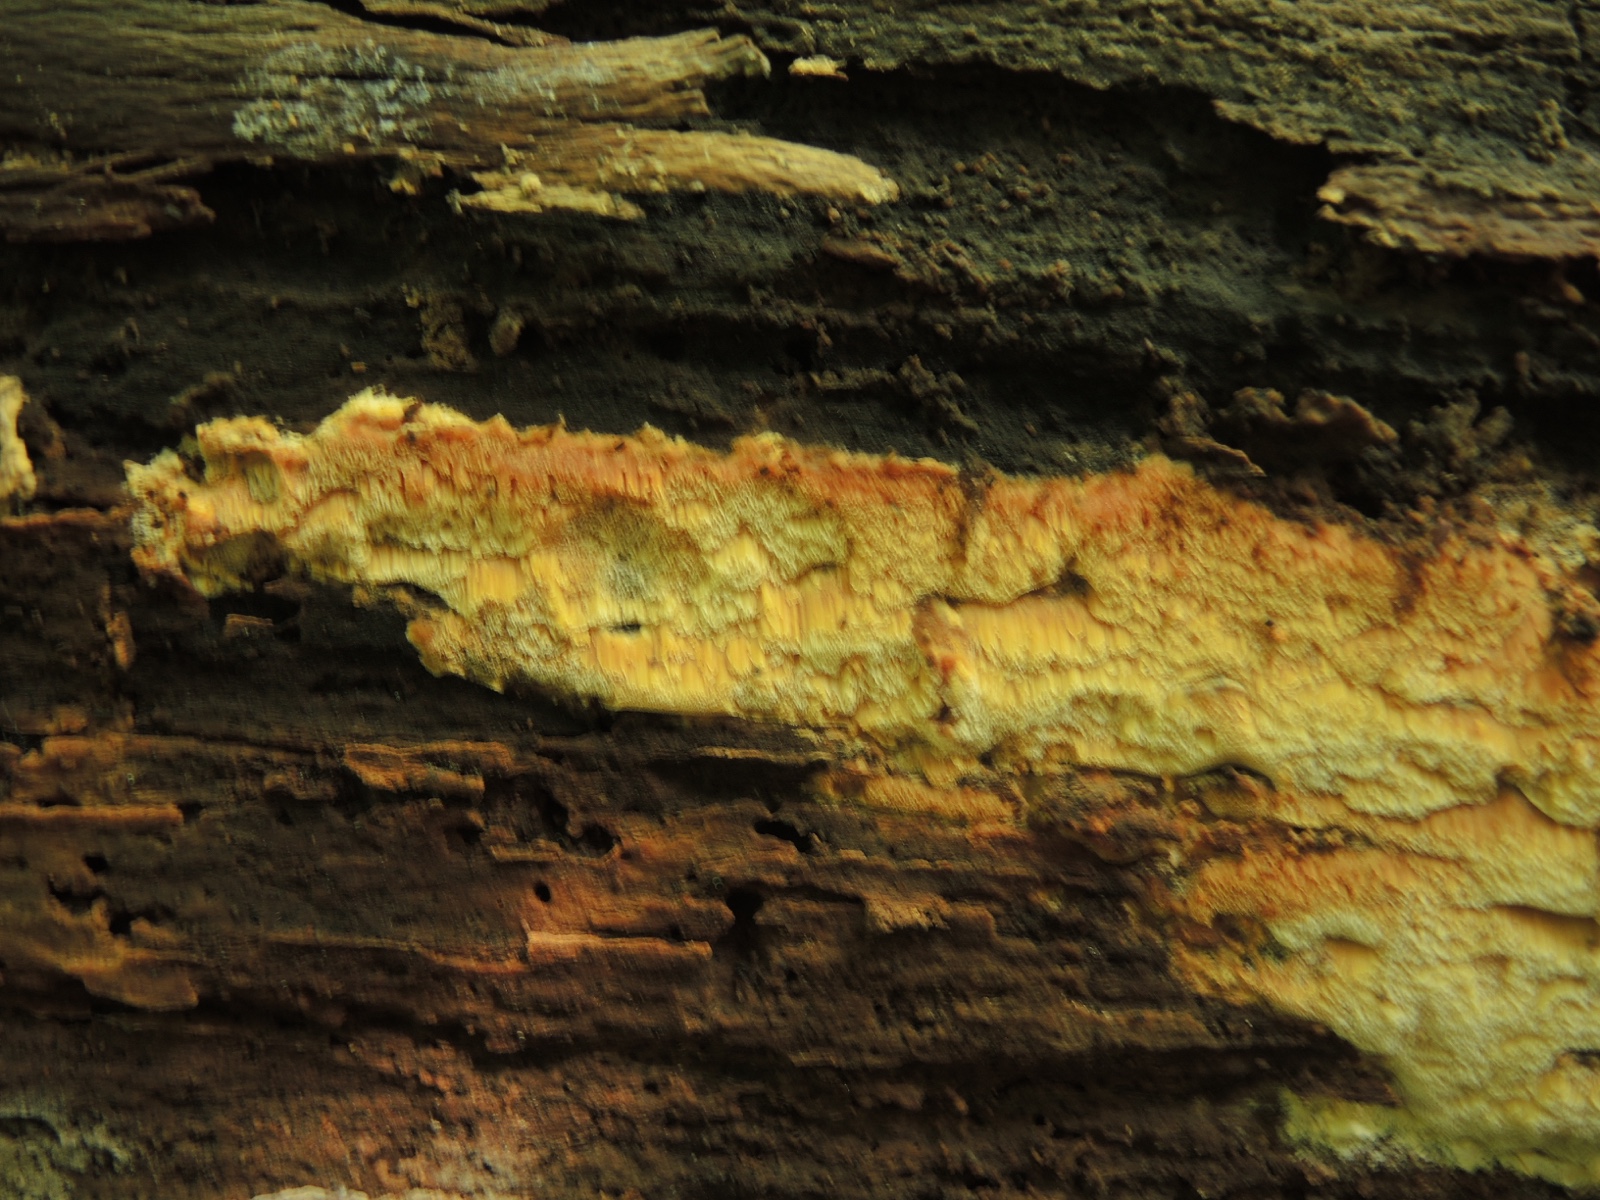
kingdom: Fungi
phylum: Basidiomycota
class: Agaricomycetes
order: Polyporales
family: Steccherinaceae
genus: Antrodiella
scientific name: Antrodiella mentschulensis
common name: abrikosporesvamp
